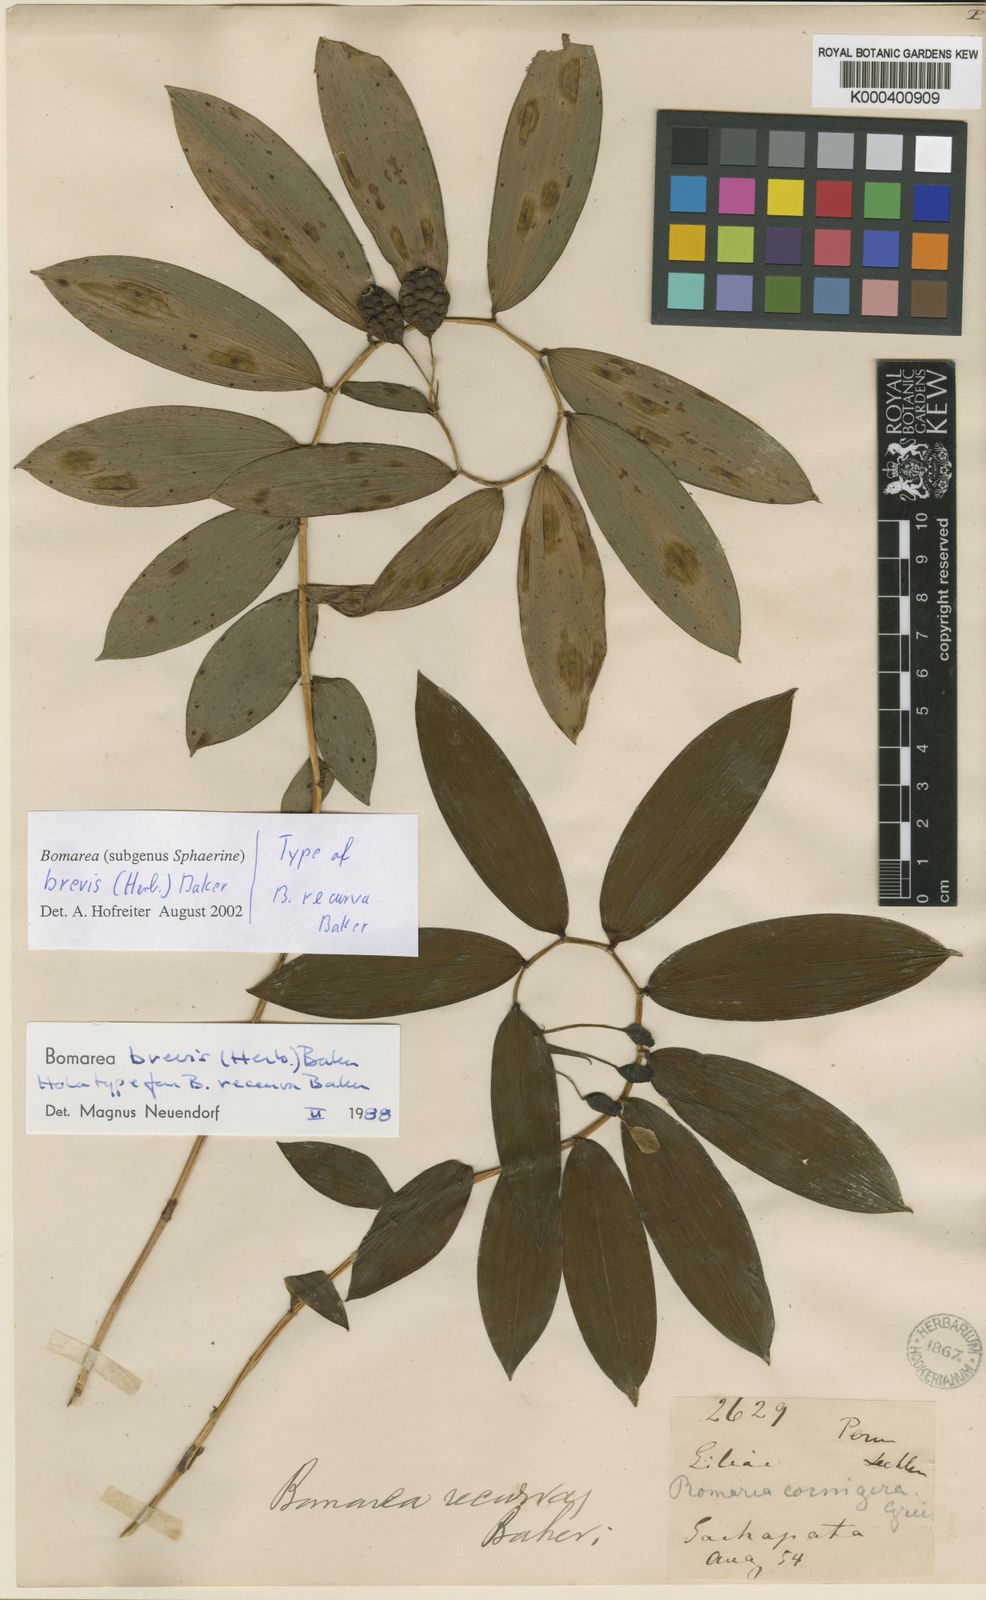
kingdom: Plantae
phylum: Tracheophyta
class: Liliopsida
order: Liliales
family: Alstroemeriaceae
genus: Bomarea
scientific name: Bomarea brevis
